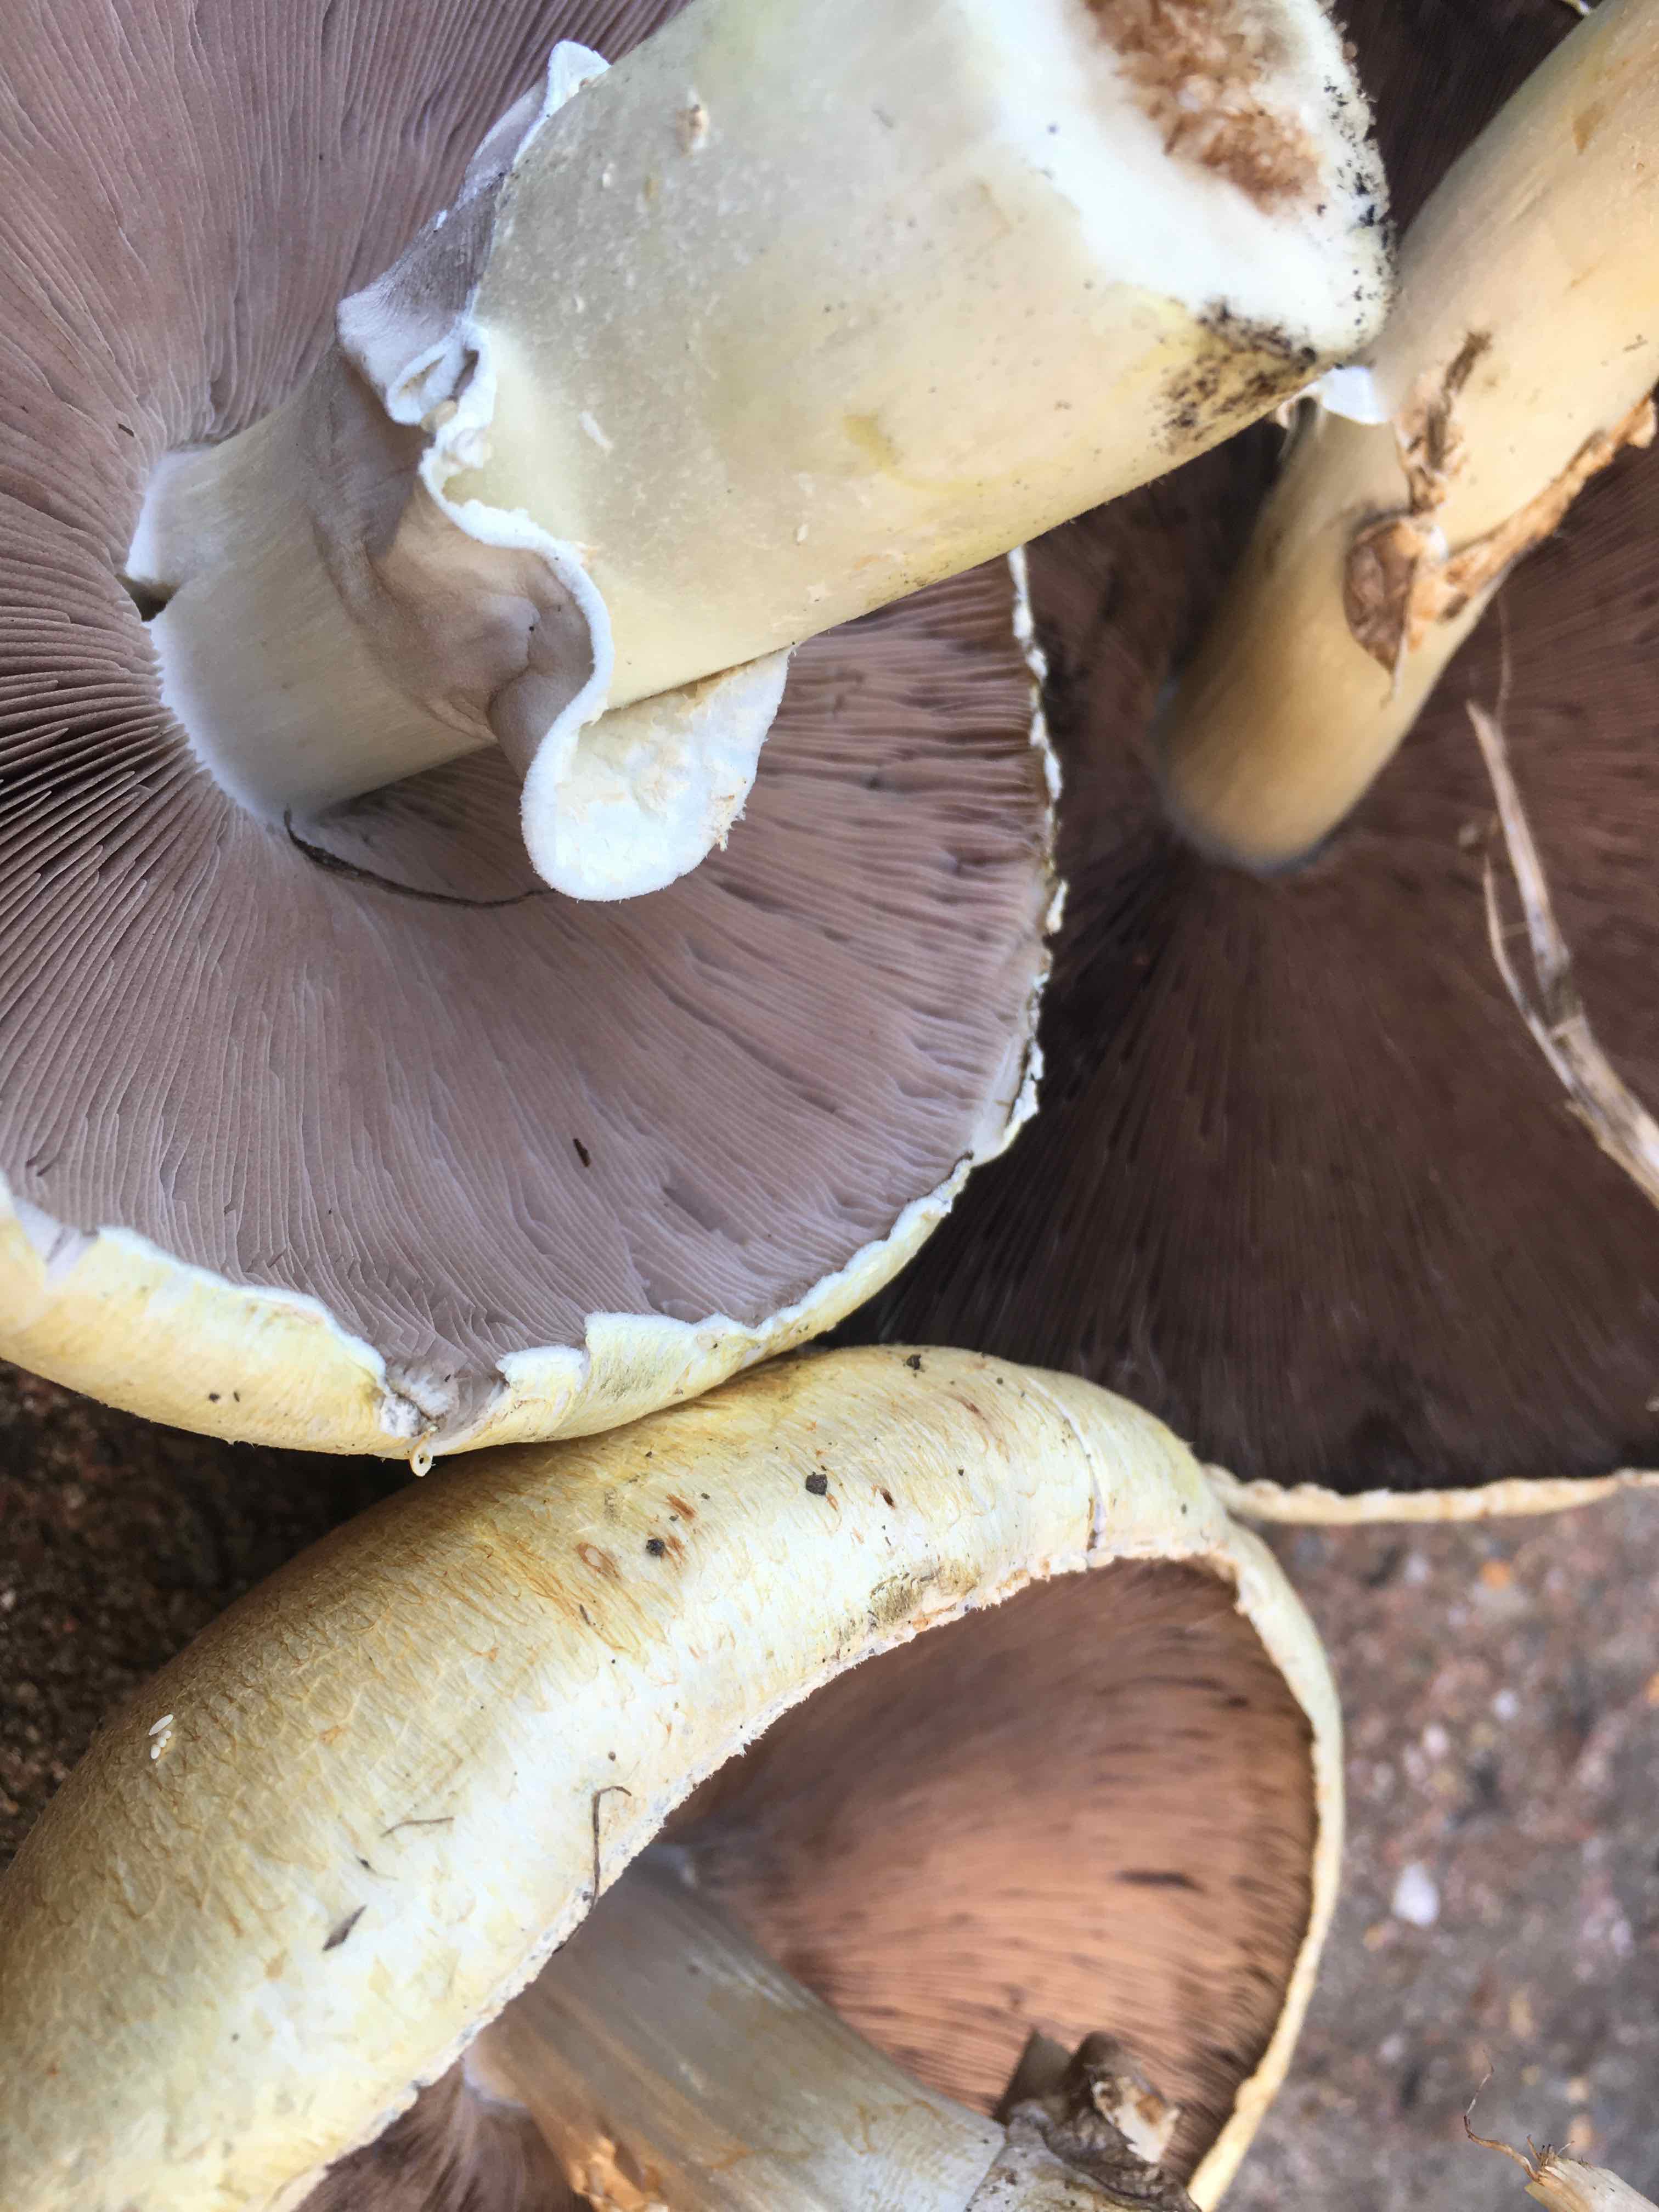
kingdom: Fungi
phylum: Basidiomycota
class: Agaricomycetes
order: Agaricales
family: Agaricaceae
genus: Agaricus
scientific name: Agaricus
